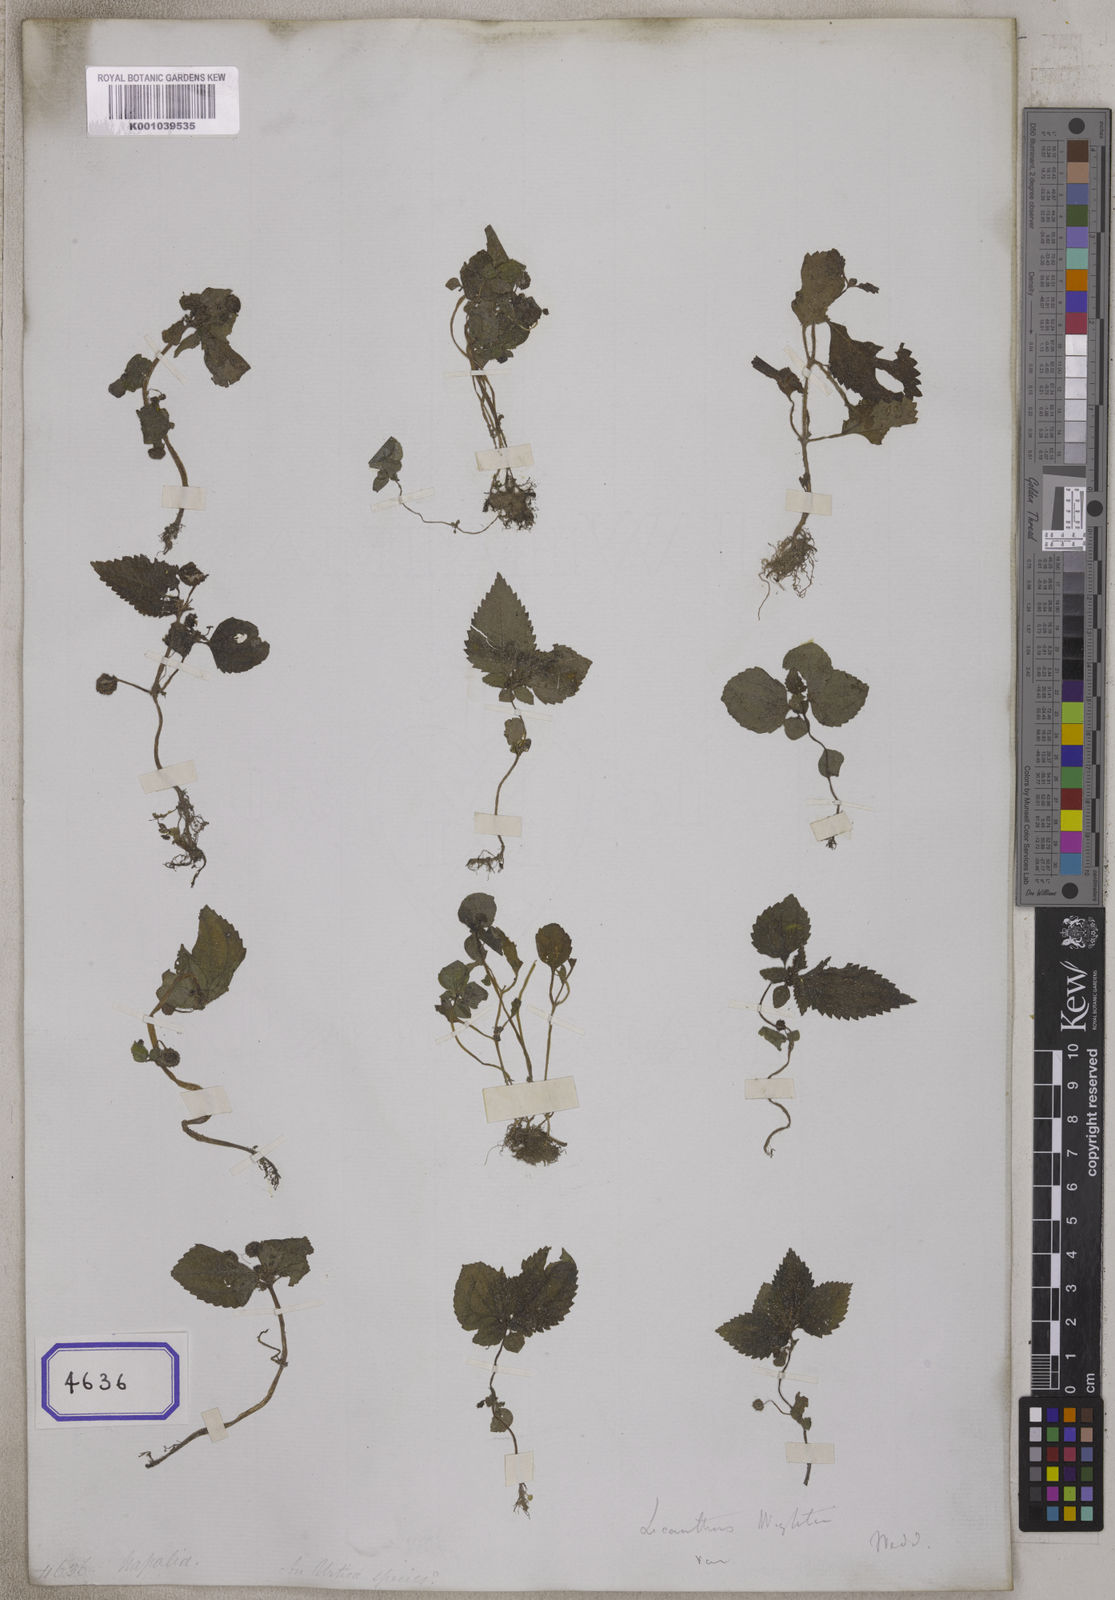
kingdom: Plantae
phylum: Tracheophyta
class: Magnoliopsida
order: Rosales
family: Urticaceae
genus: Elatostema
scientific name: Elatostema obtusum
